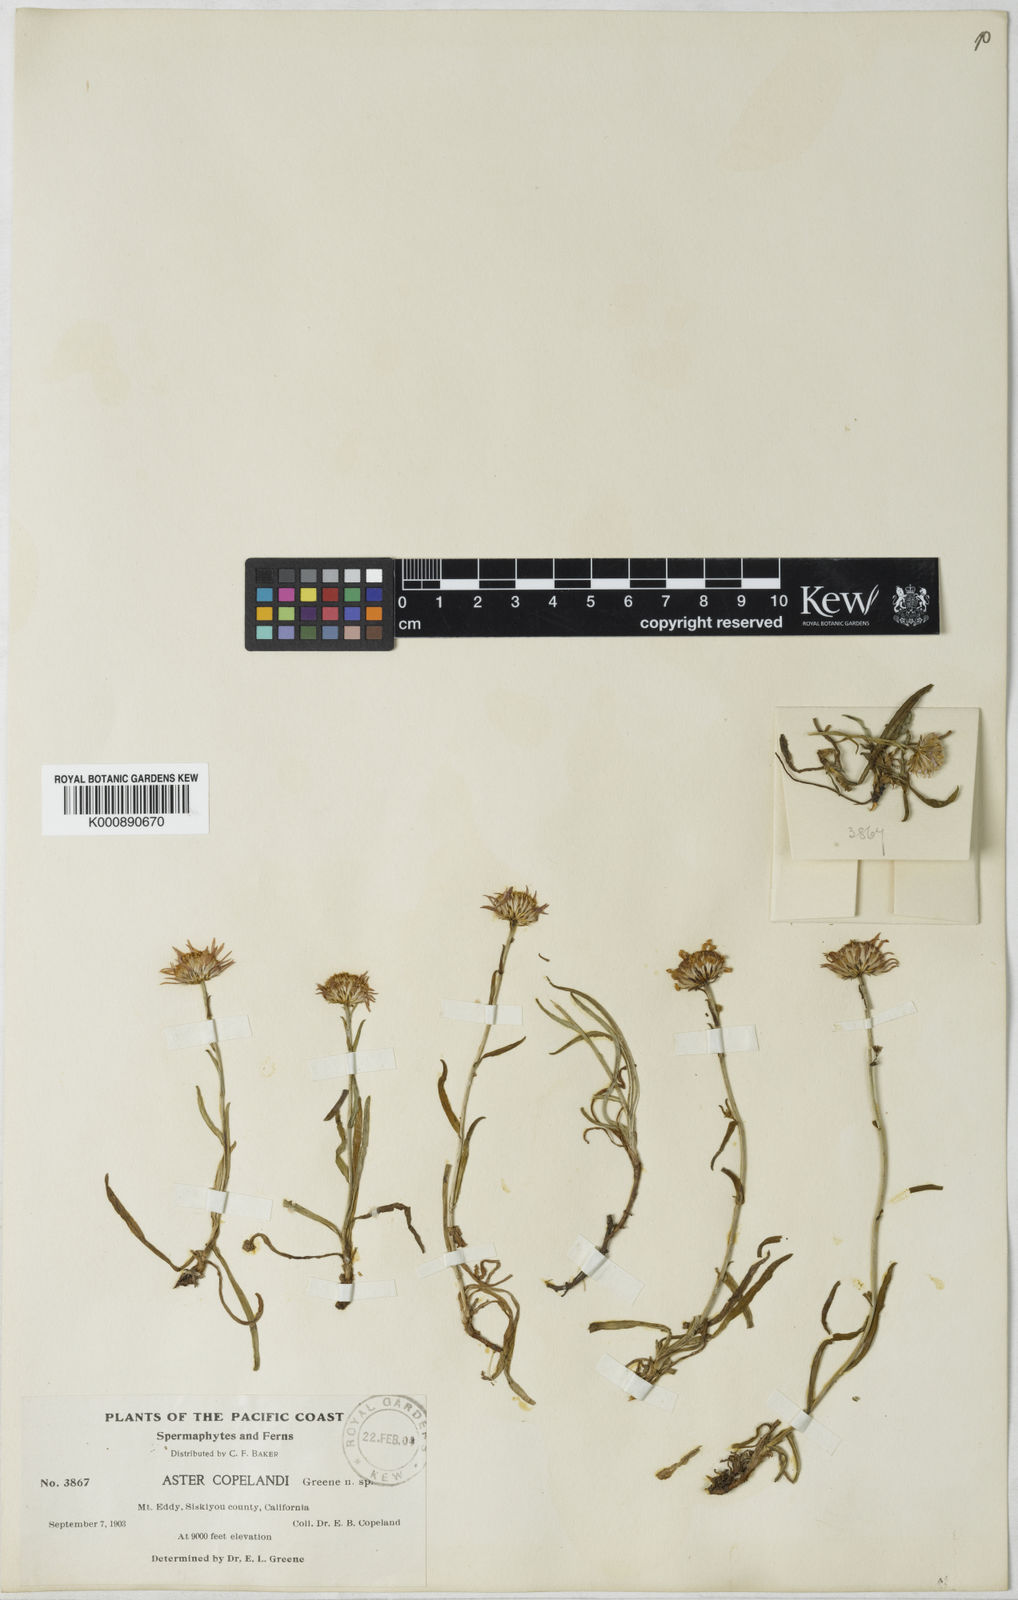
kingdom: Plantae
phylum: Tracheophyta
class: Magnoliopsida
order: Asterales
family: Asteraceae
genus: Aster
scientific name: Aster copelandii
